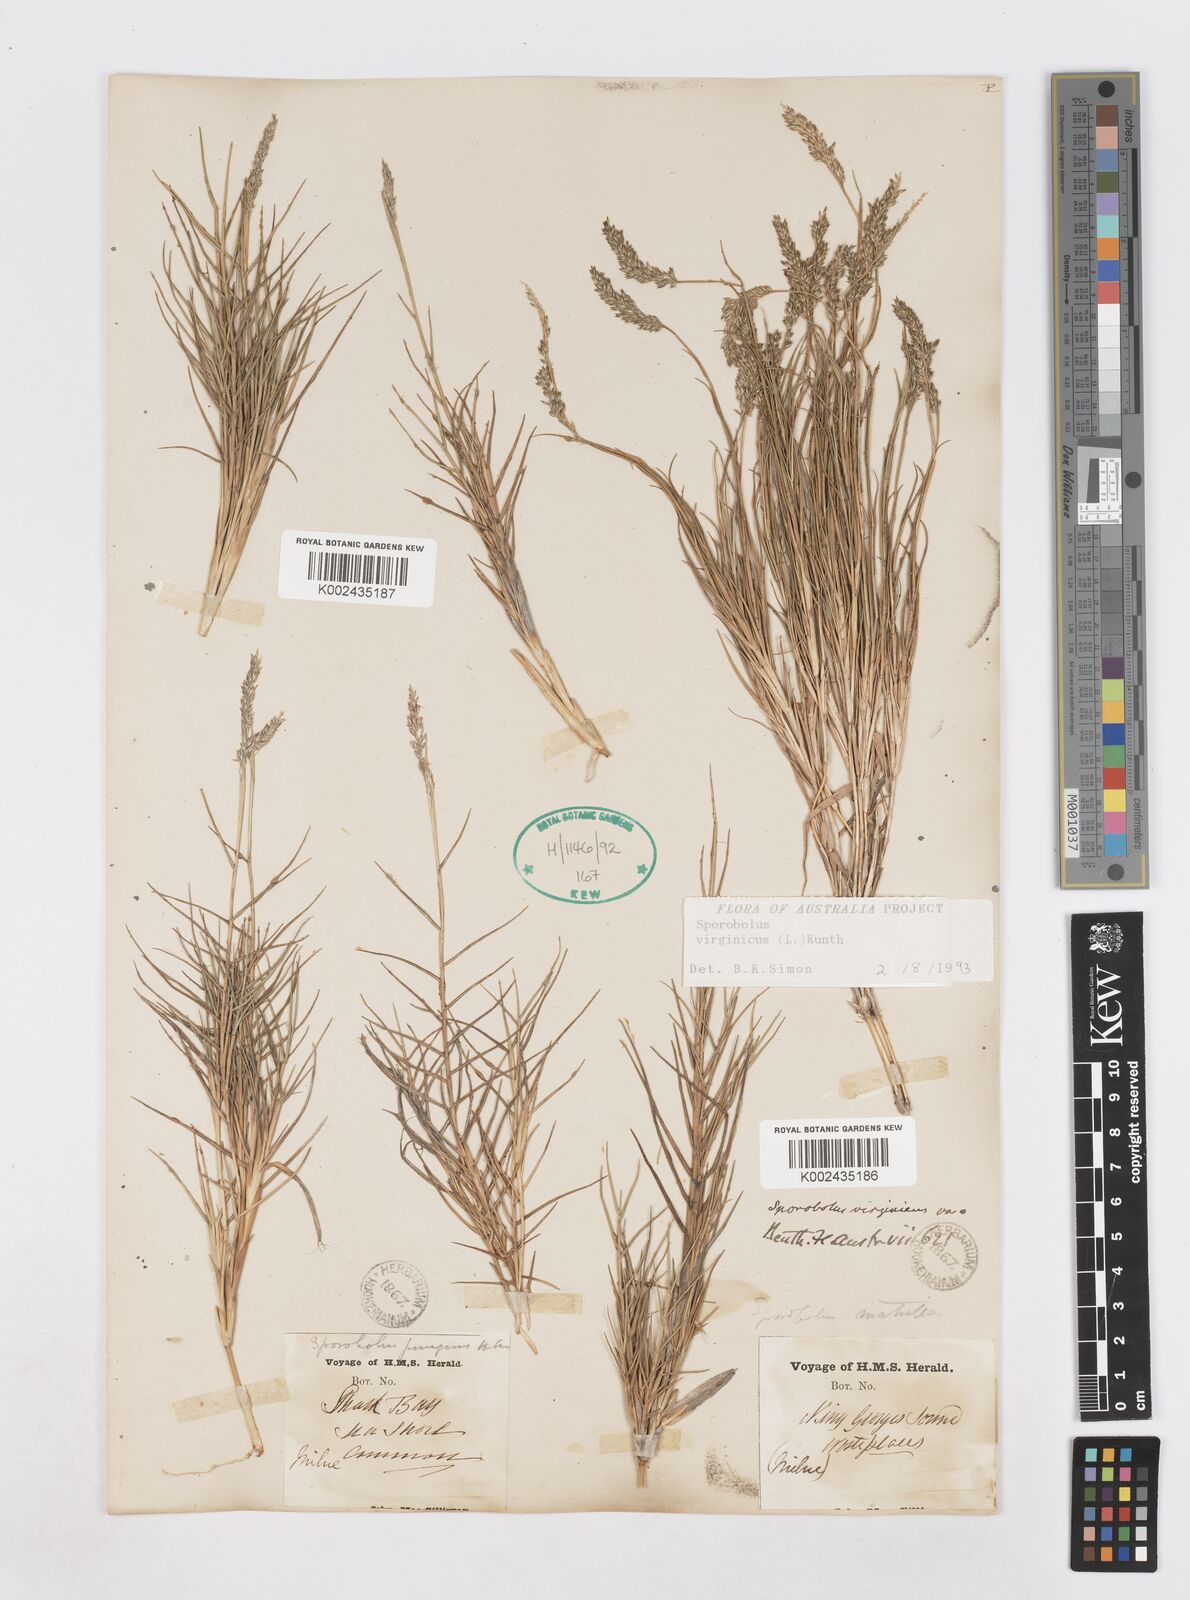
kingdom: Plantae
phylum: Tracheophyta
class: Liliopsida
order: Poales
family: Poaceae
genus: Sporobolus
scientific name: Sporobolus virginicus
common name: Beach dropseed
